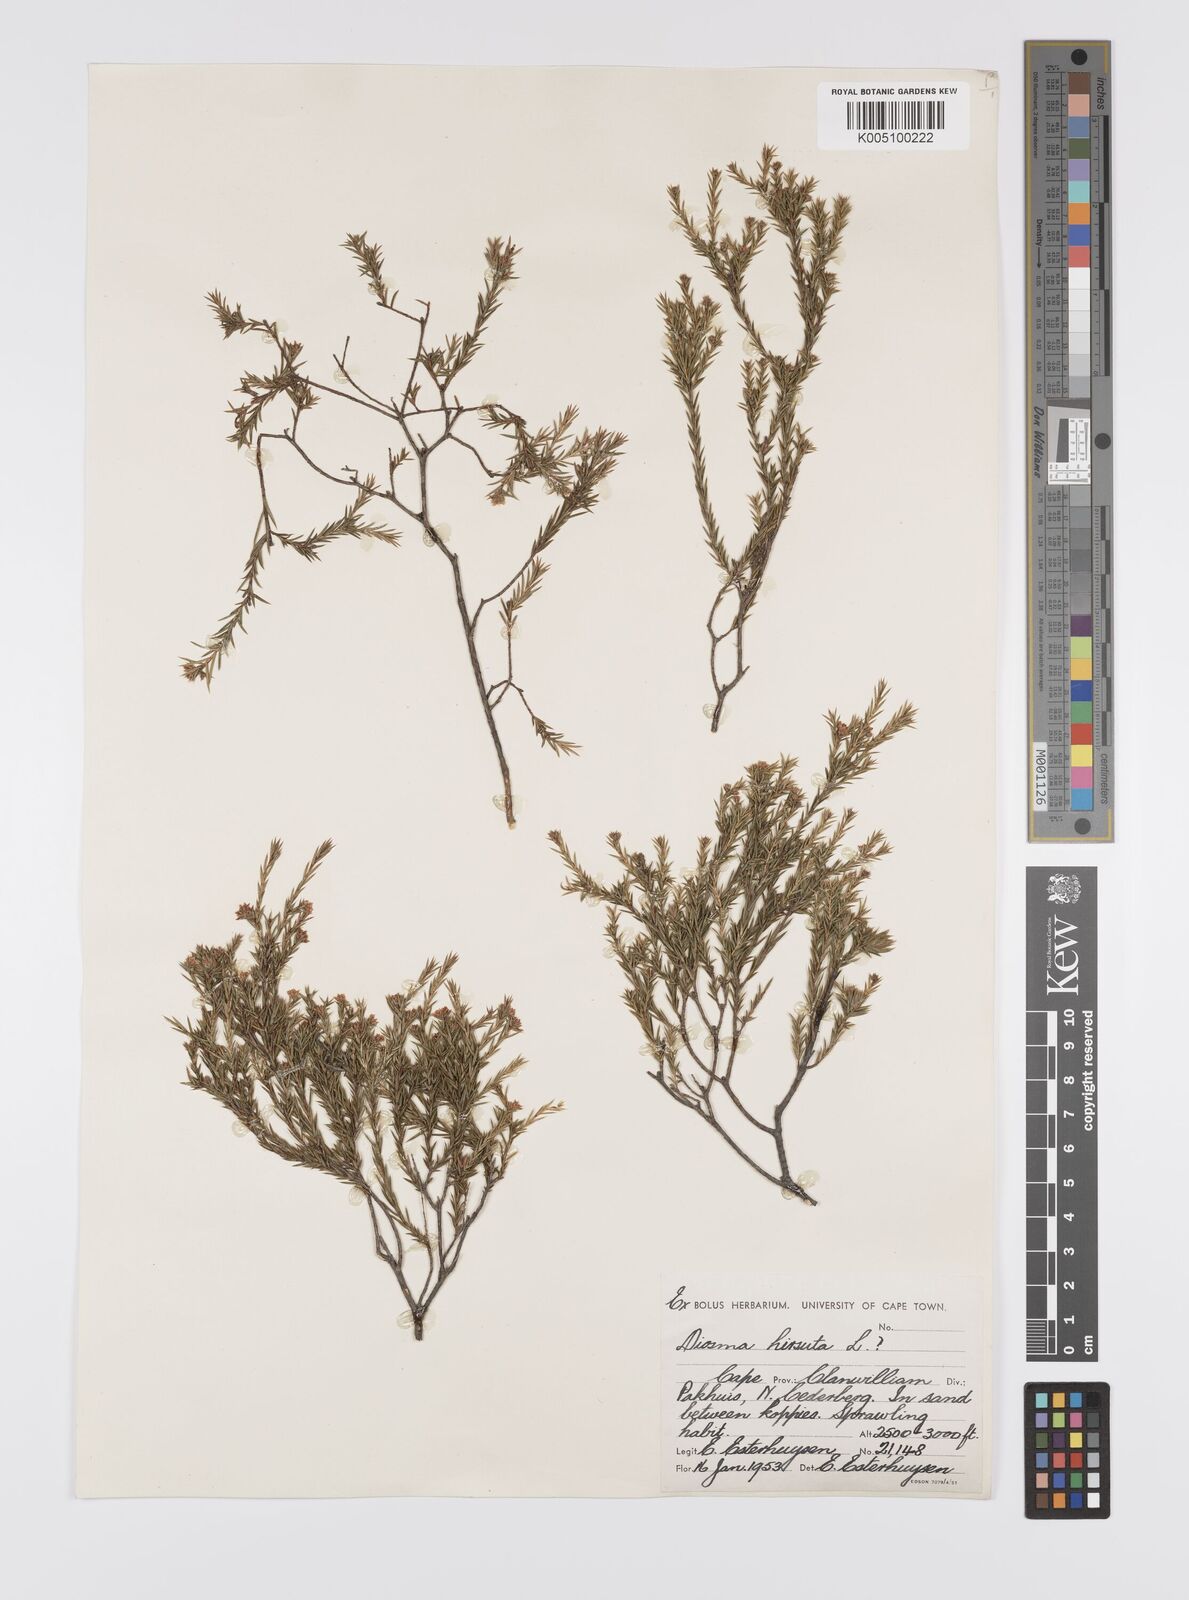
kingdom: Plantae
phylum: Tracheophyta
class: Magnoliopsida
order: Sapindales
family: Rutaceae
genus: Diosma
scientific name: Diosma hirsuta
